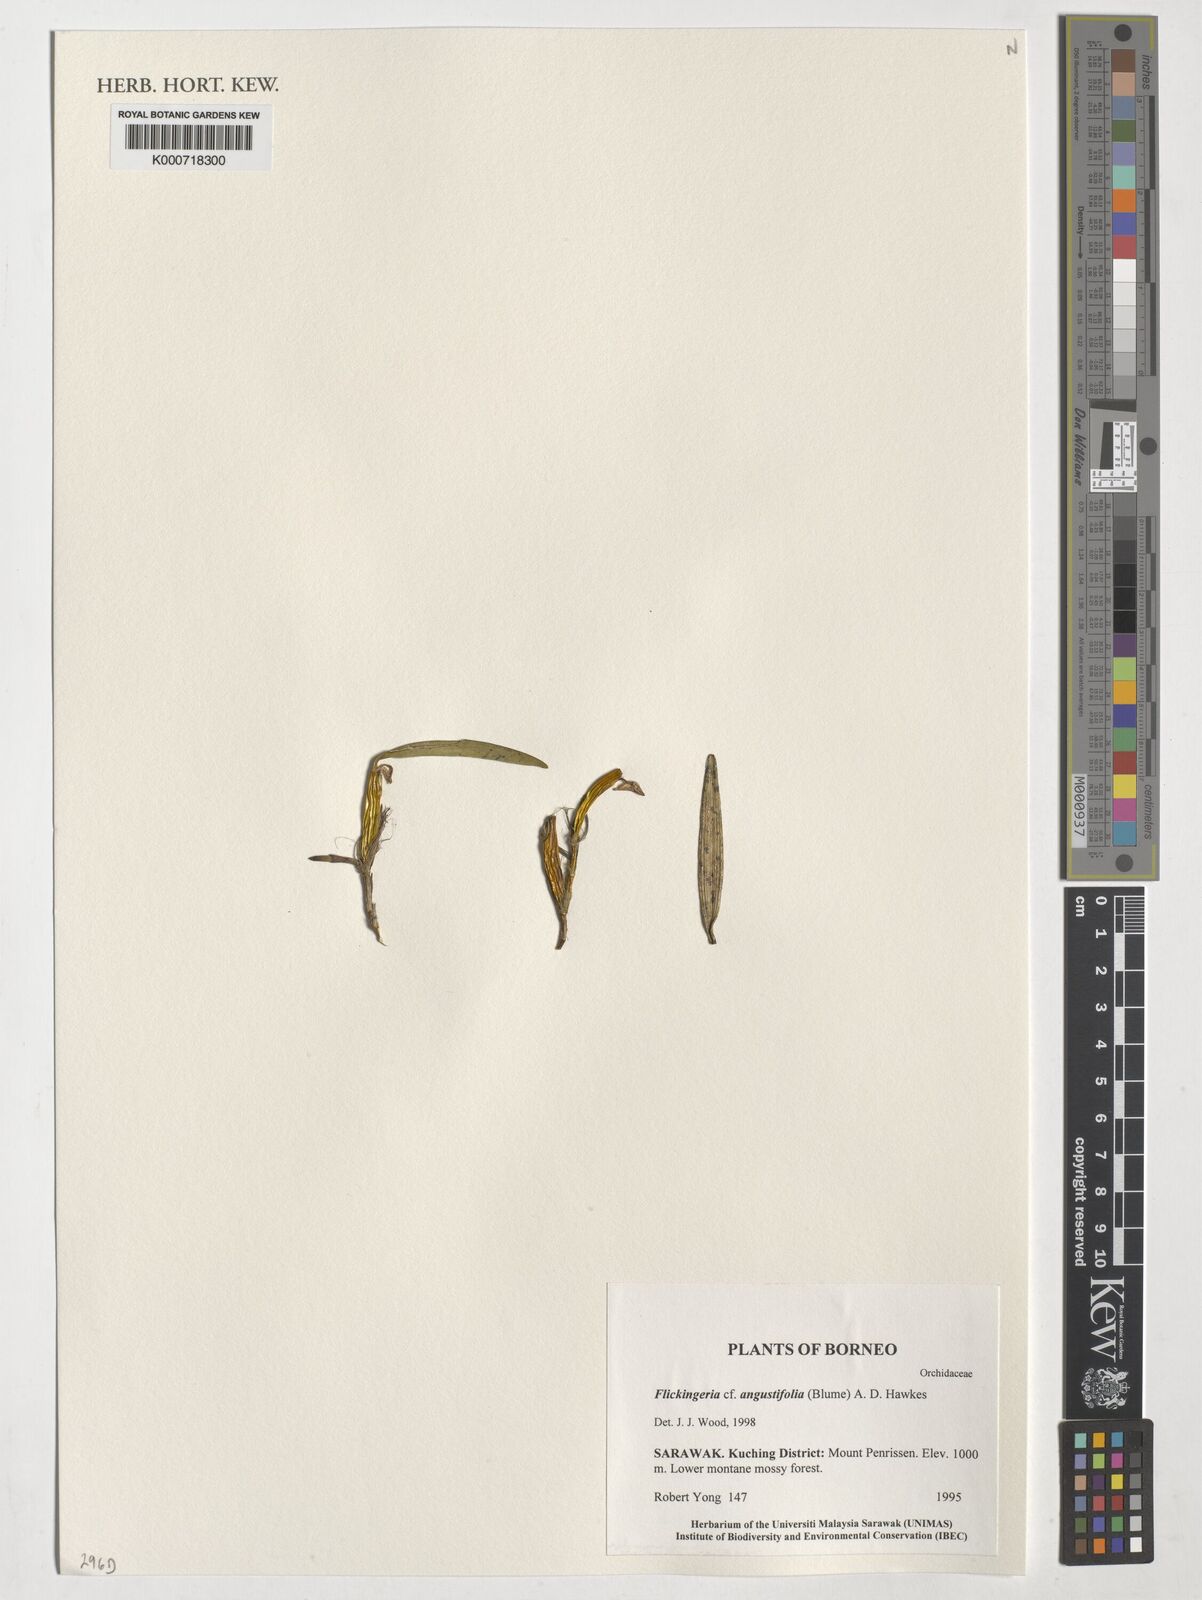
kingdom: Plantae
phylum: Tracheophyta
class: Liliopsida
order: Asparagales
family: Orchidaceae
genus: Dendrobium
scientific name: Dendrobium angustifolium
